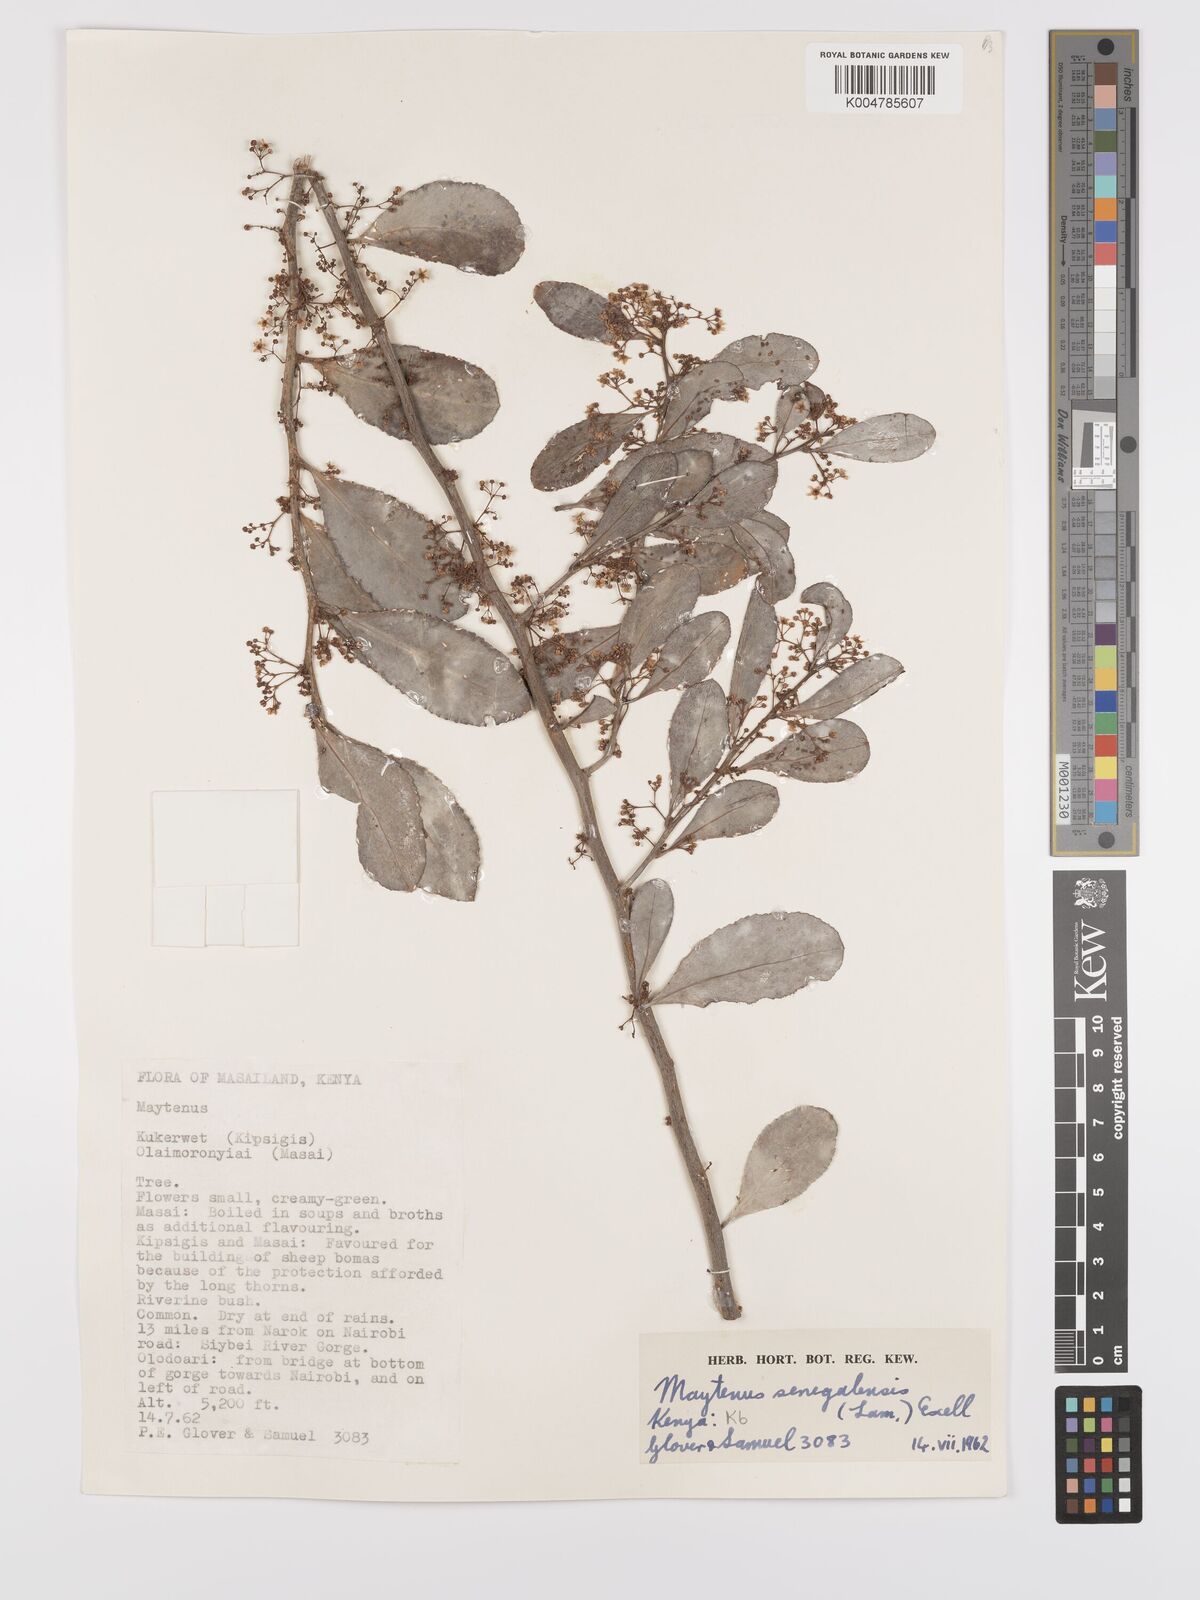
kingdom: Plantae
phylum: Tracheophyta
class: Magnoliopsida
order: Celastrales
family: Celastraceae
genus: Gymnosporia
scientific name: Gymnosporia senegalensis
